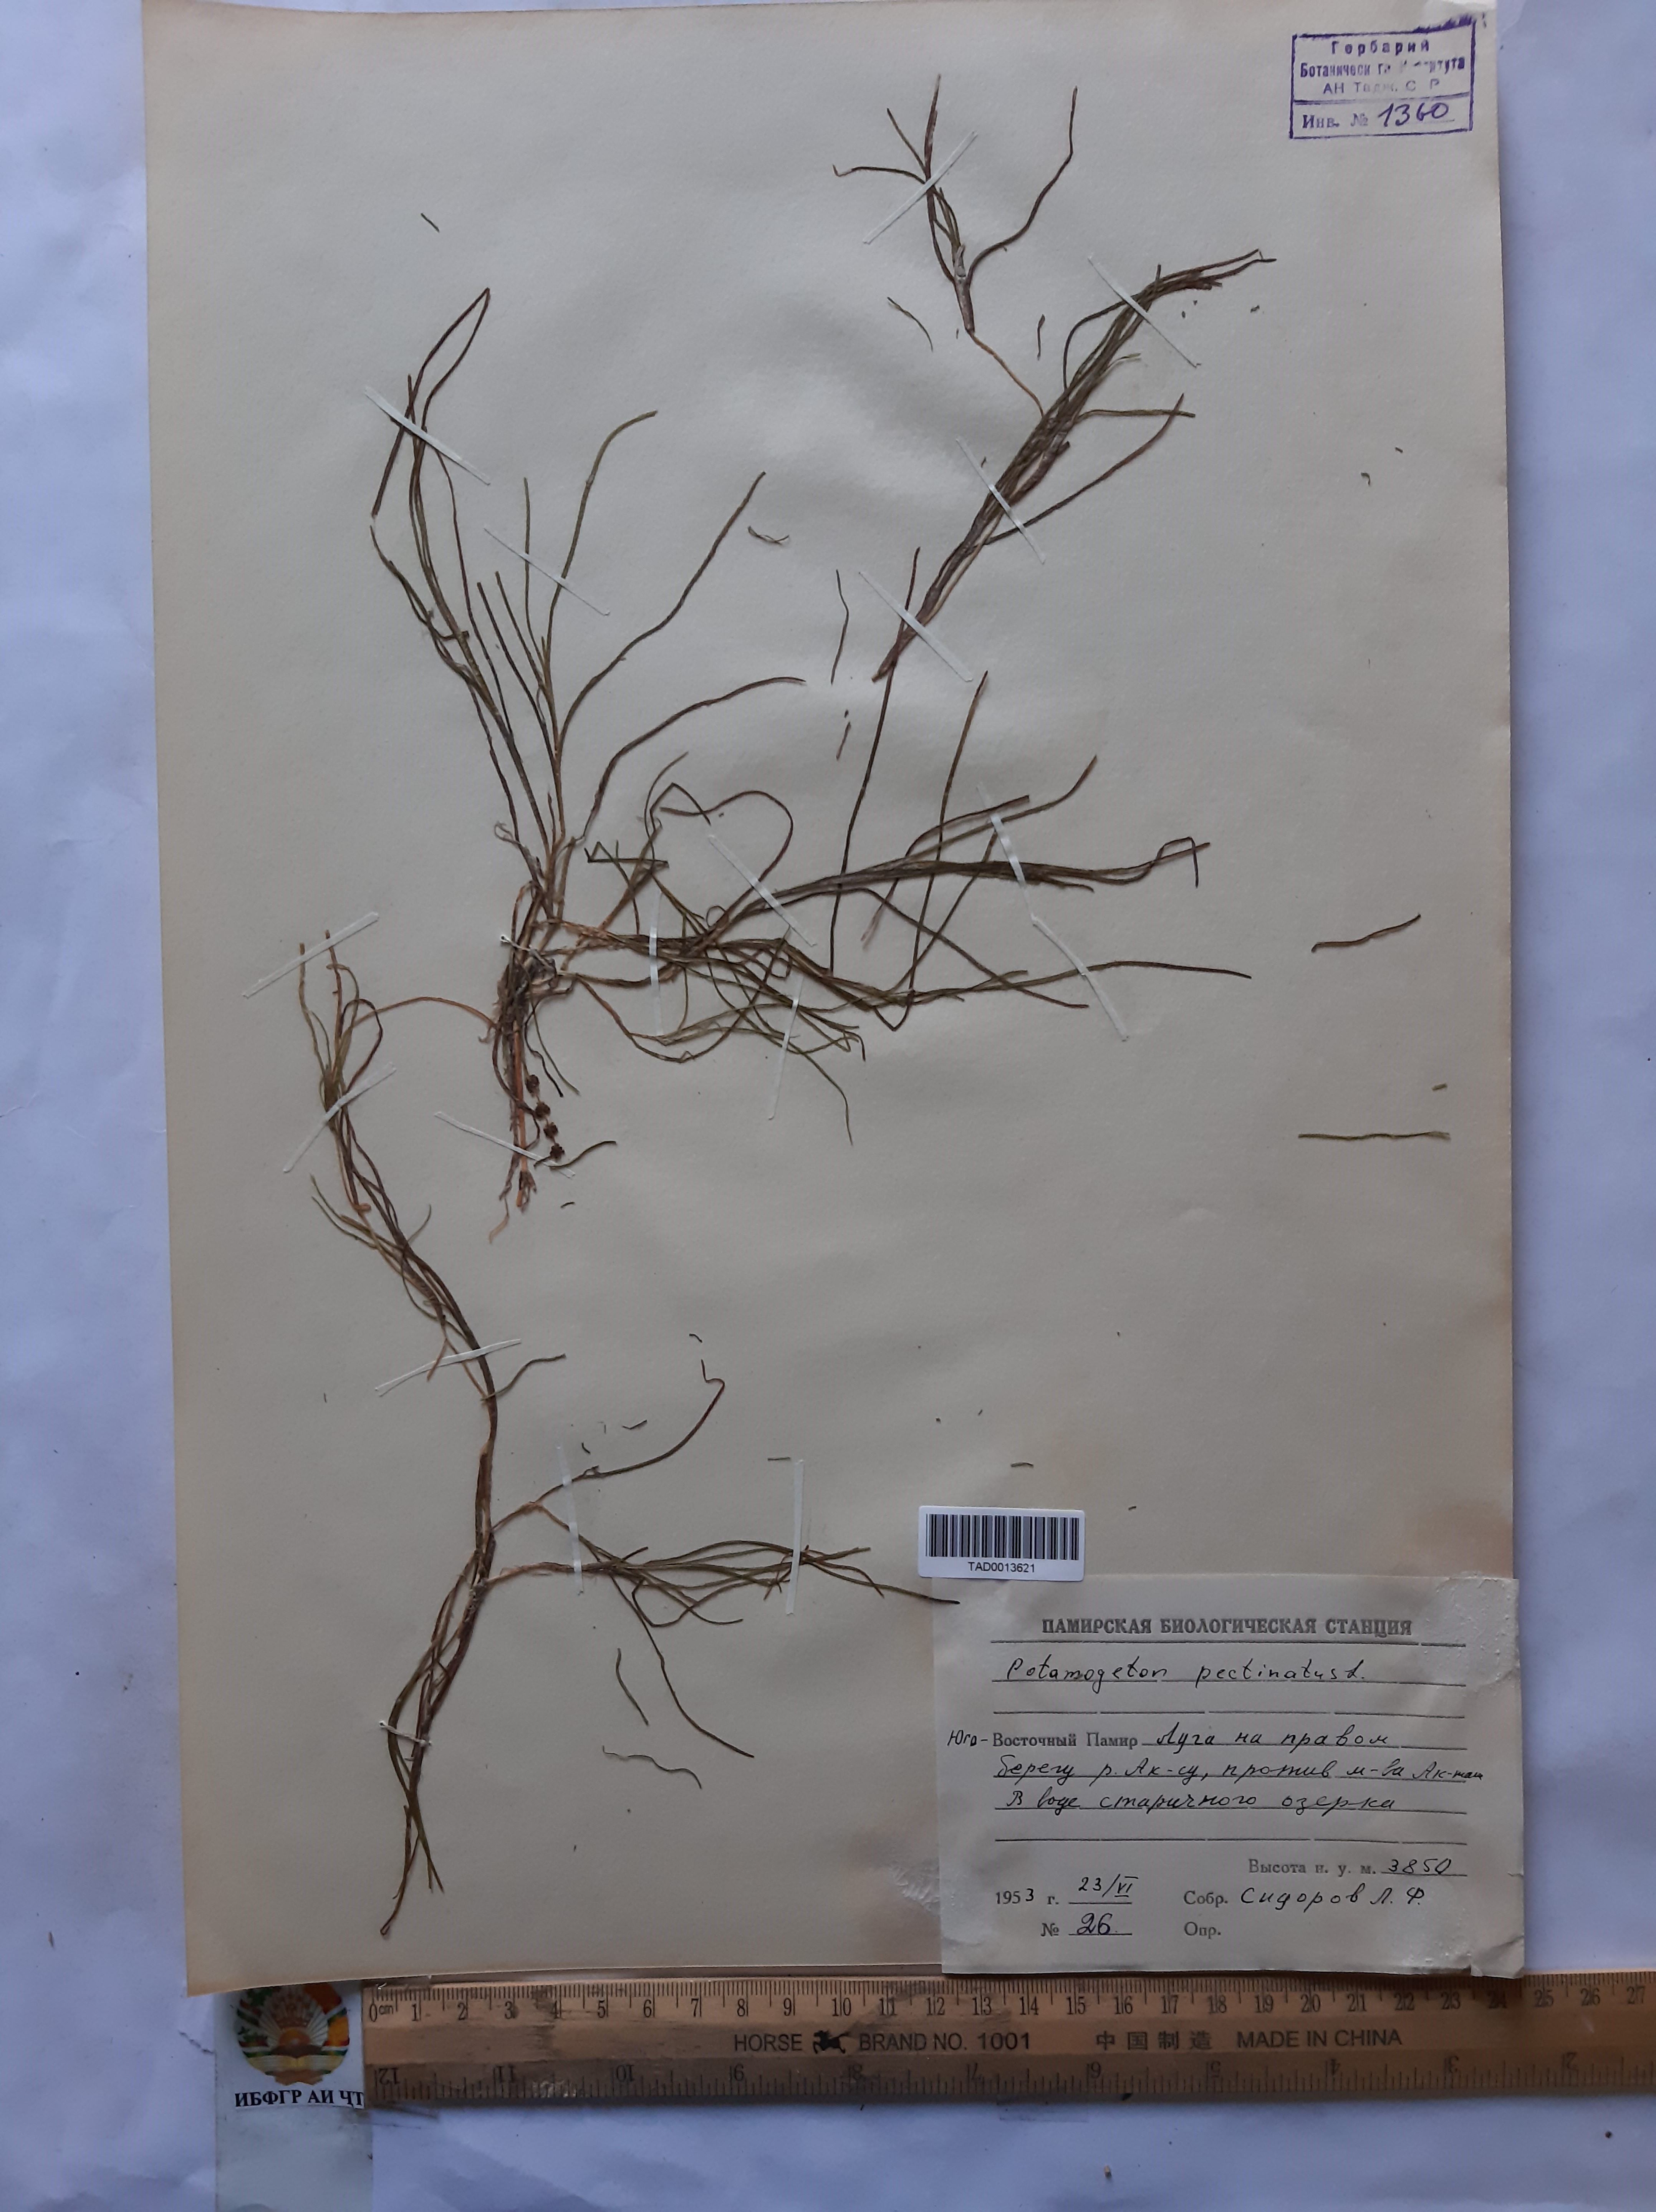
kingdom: Plantae
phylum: Tracheophyta
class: Liliopsida
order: Alismatales
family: Potamogetonaceae
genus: Stuckenia
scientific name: Stuckenia pectinata
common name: Sago pondweed
